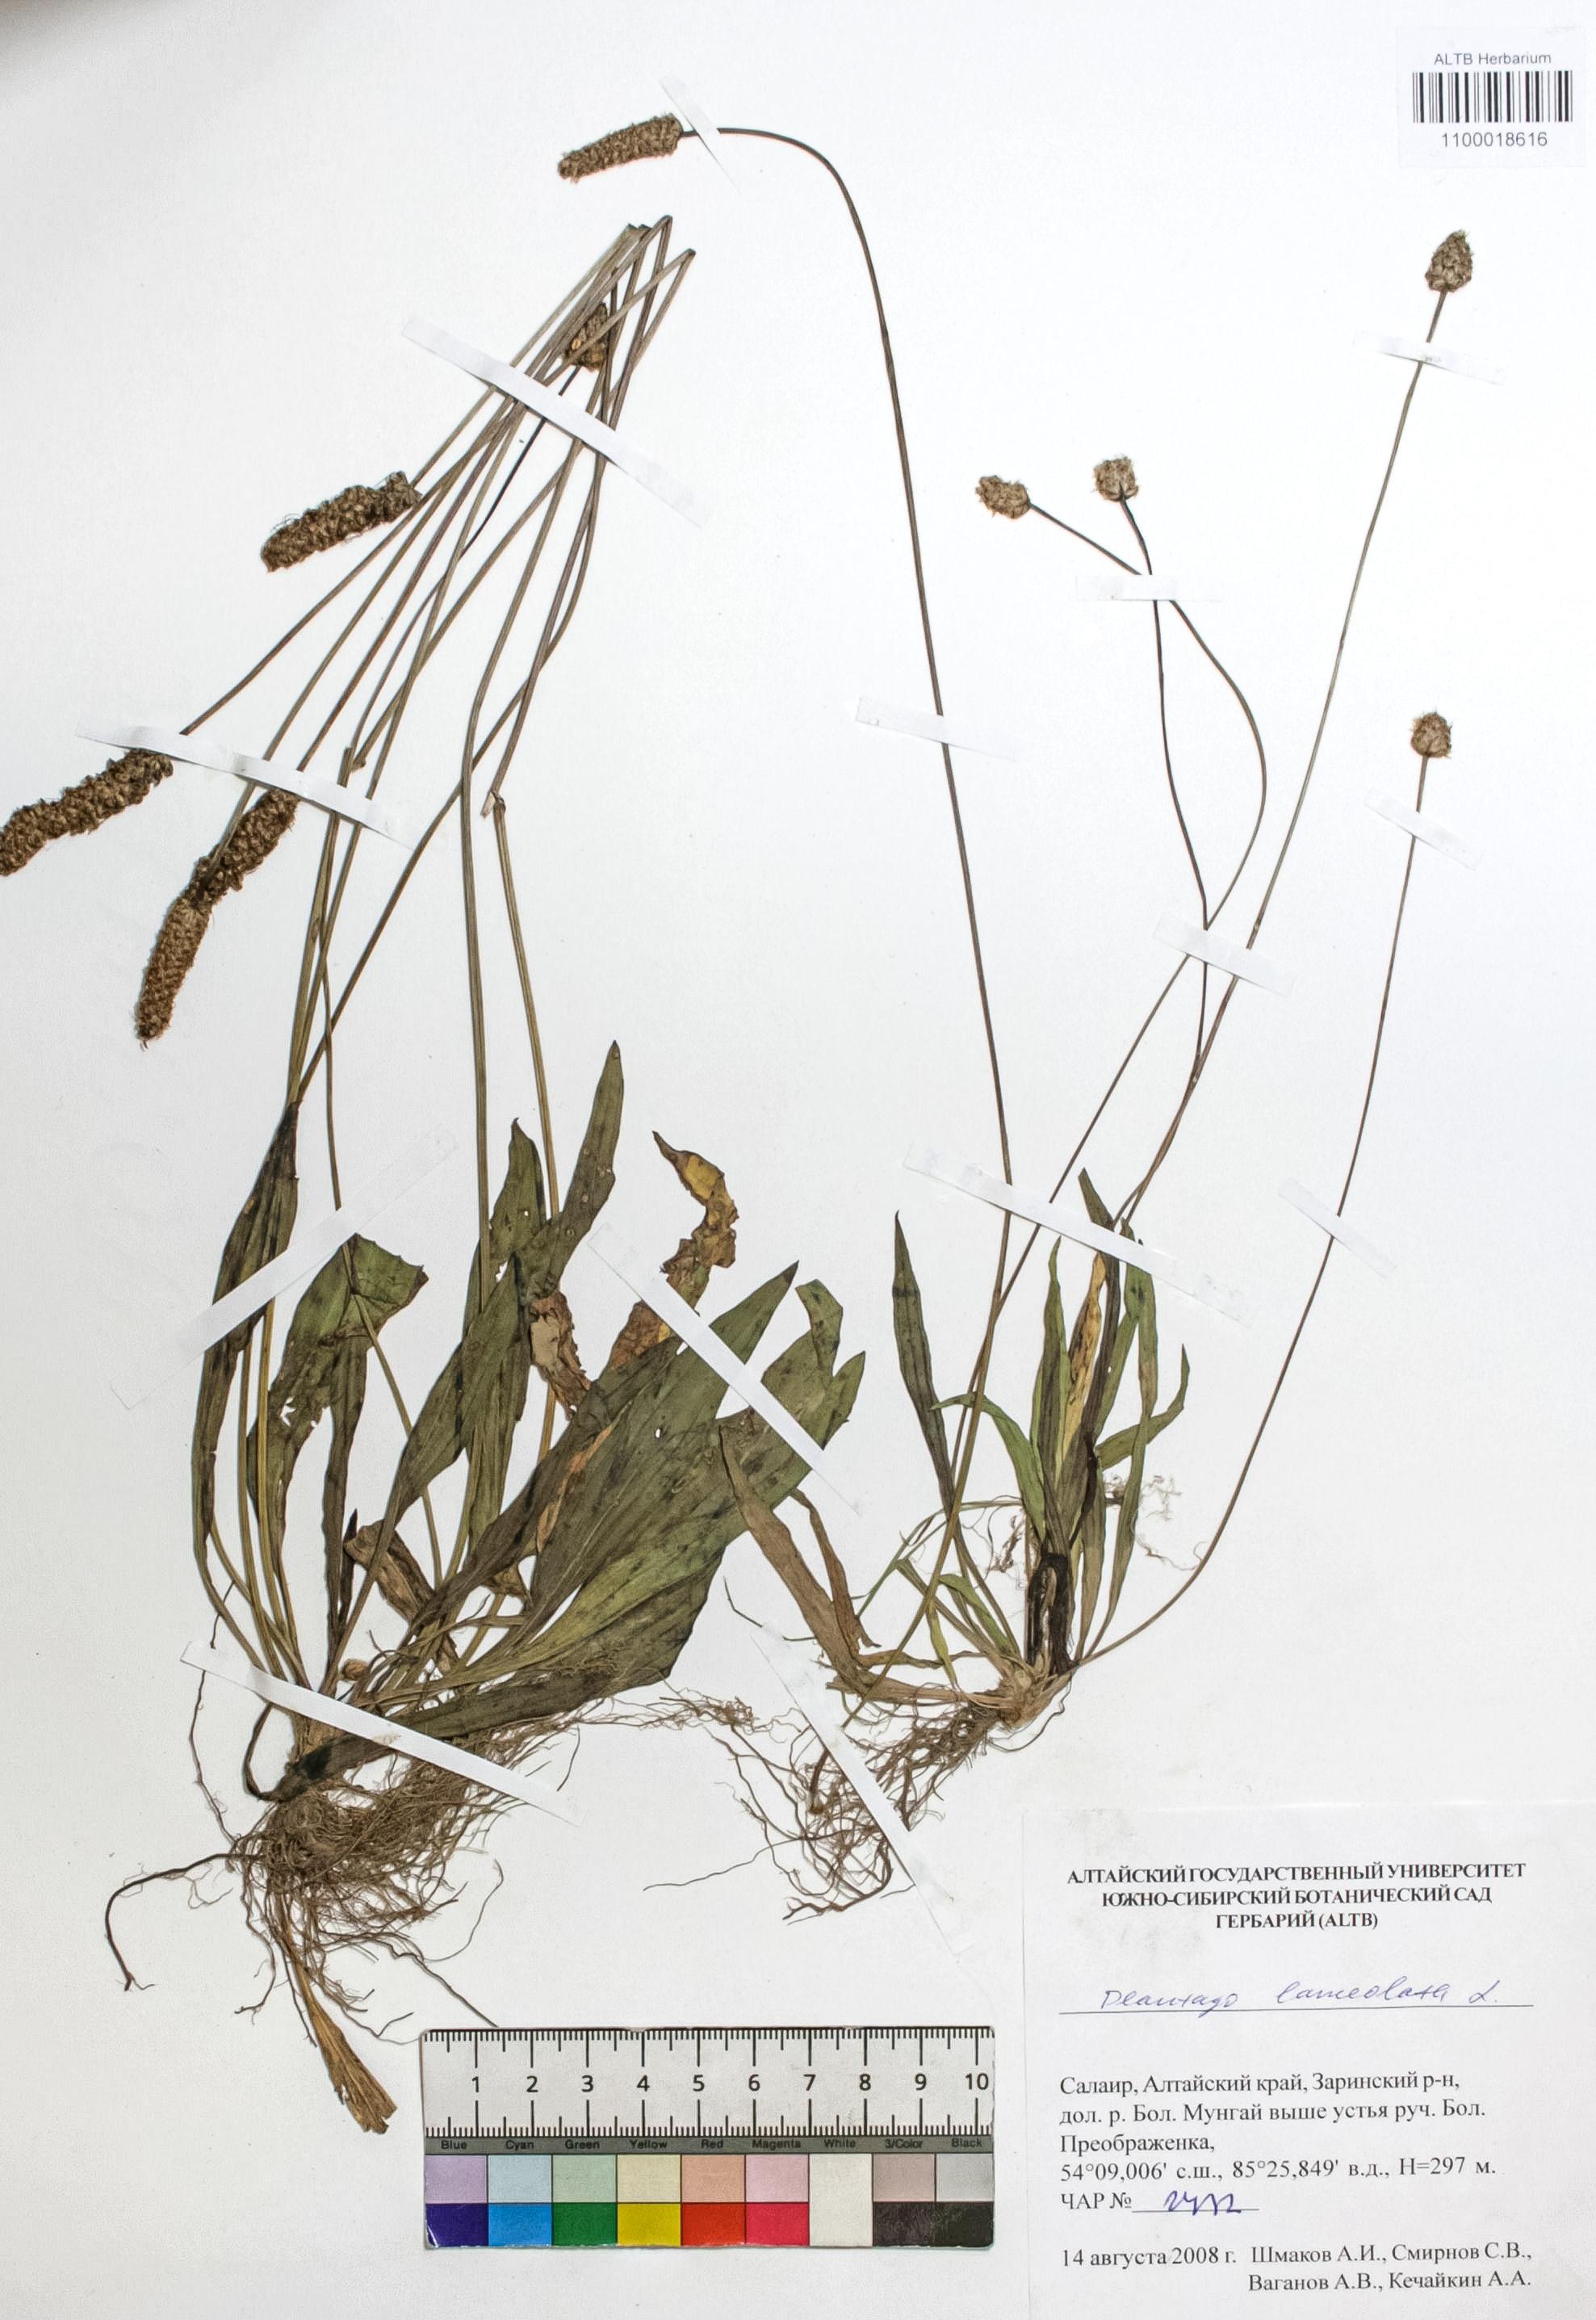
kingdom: Plantae
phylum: Tracheophyta
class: Magnoliopsida
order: Lamiales
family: Plantaginaceae
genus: Plantago
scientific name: Plantago lanceolata
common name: Ribwort plantain
